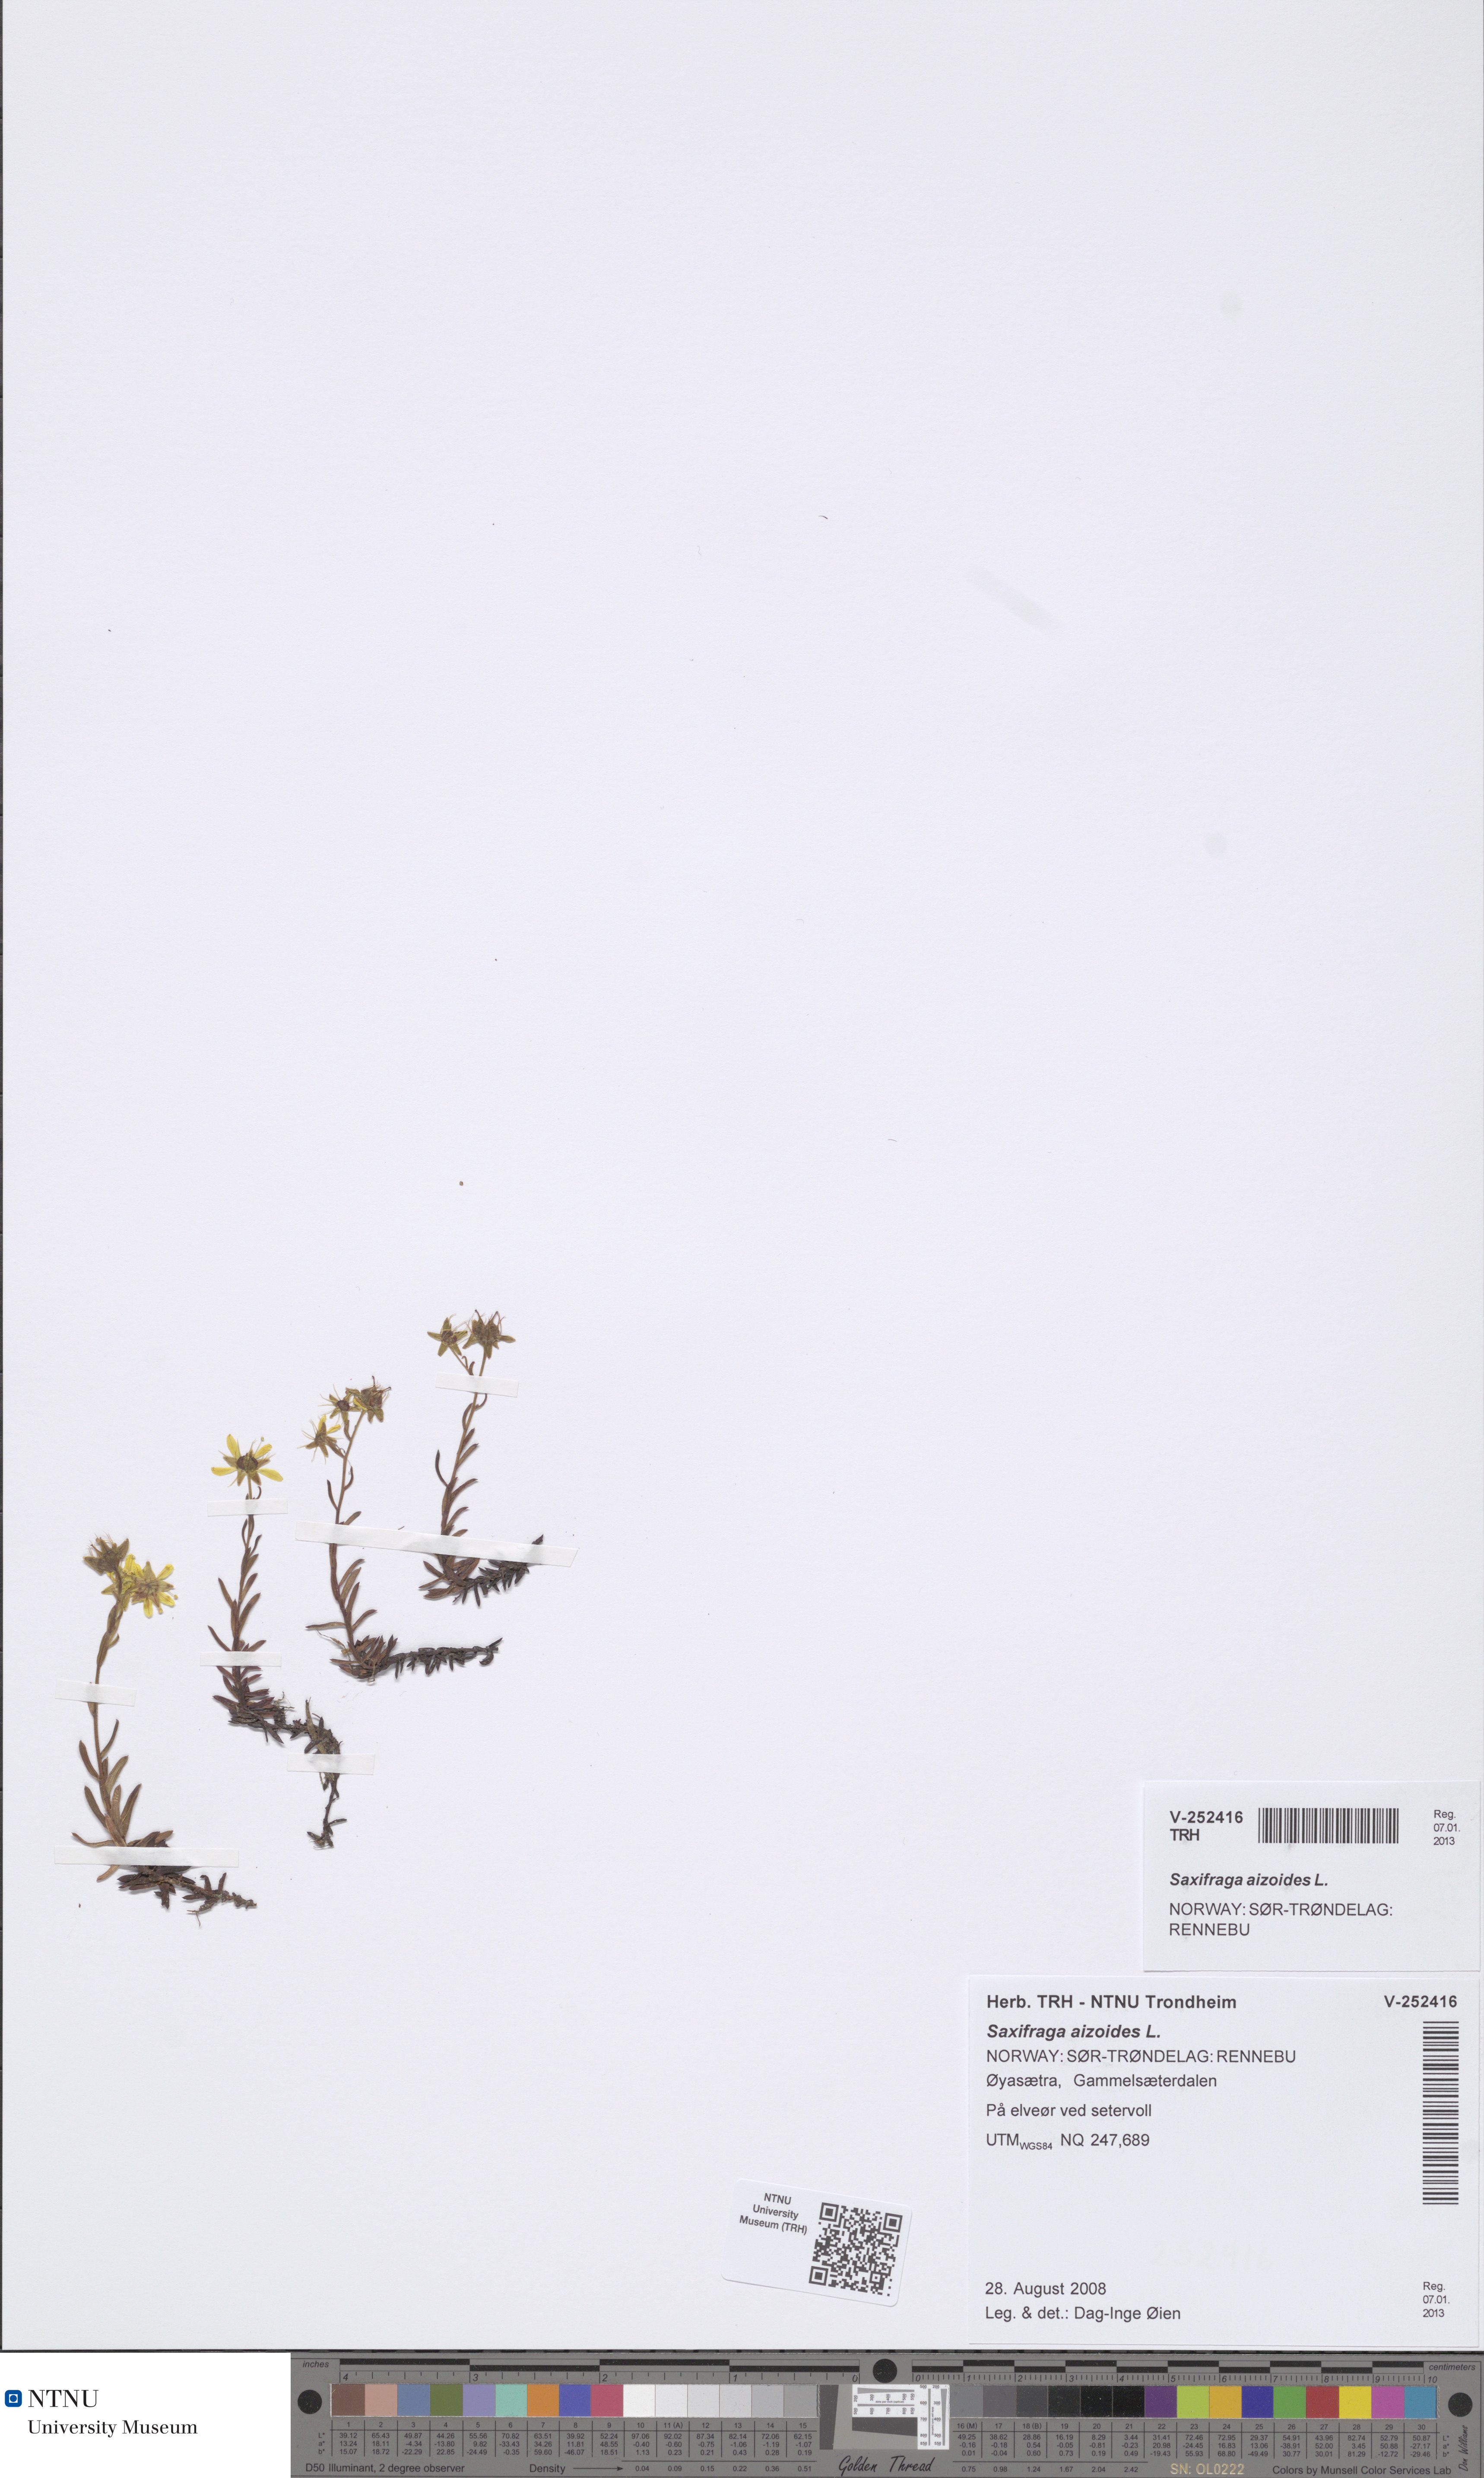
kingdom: Plantae
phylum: Tracheophyta
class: Magnoliopsida
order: Saxifragales
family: Saxifragaceae
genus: Saxifraga
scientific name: Saxifraga aizoides
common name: Yellow mountain saxifrage
